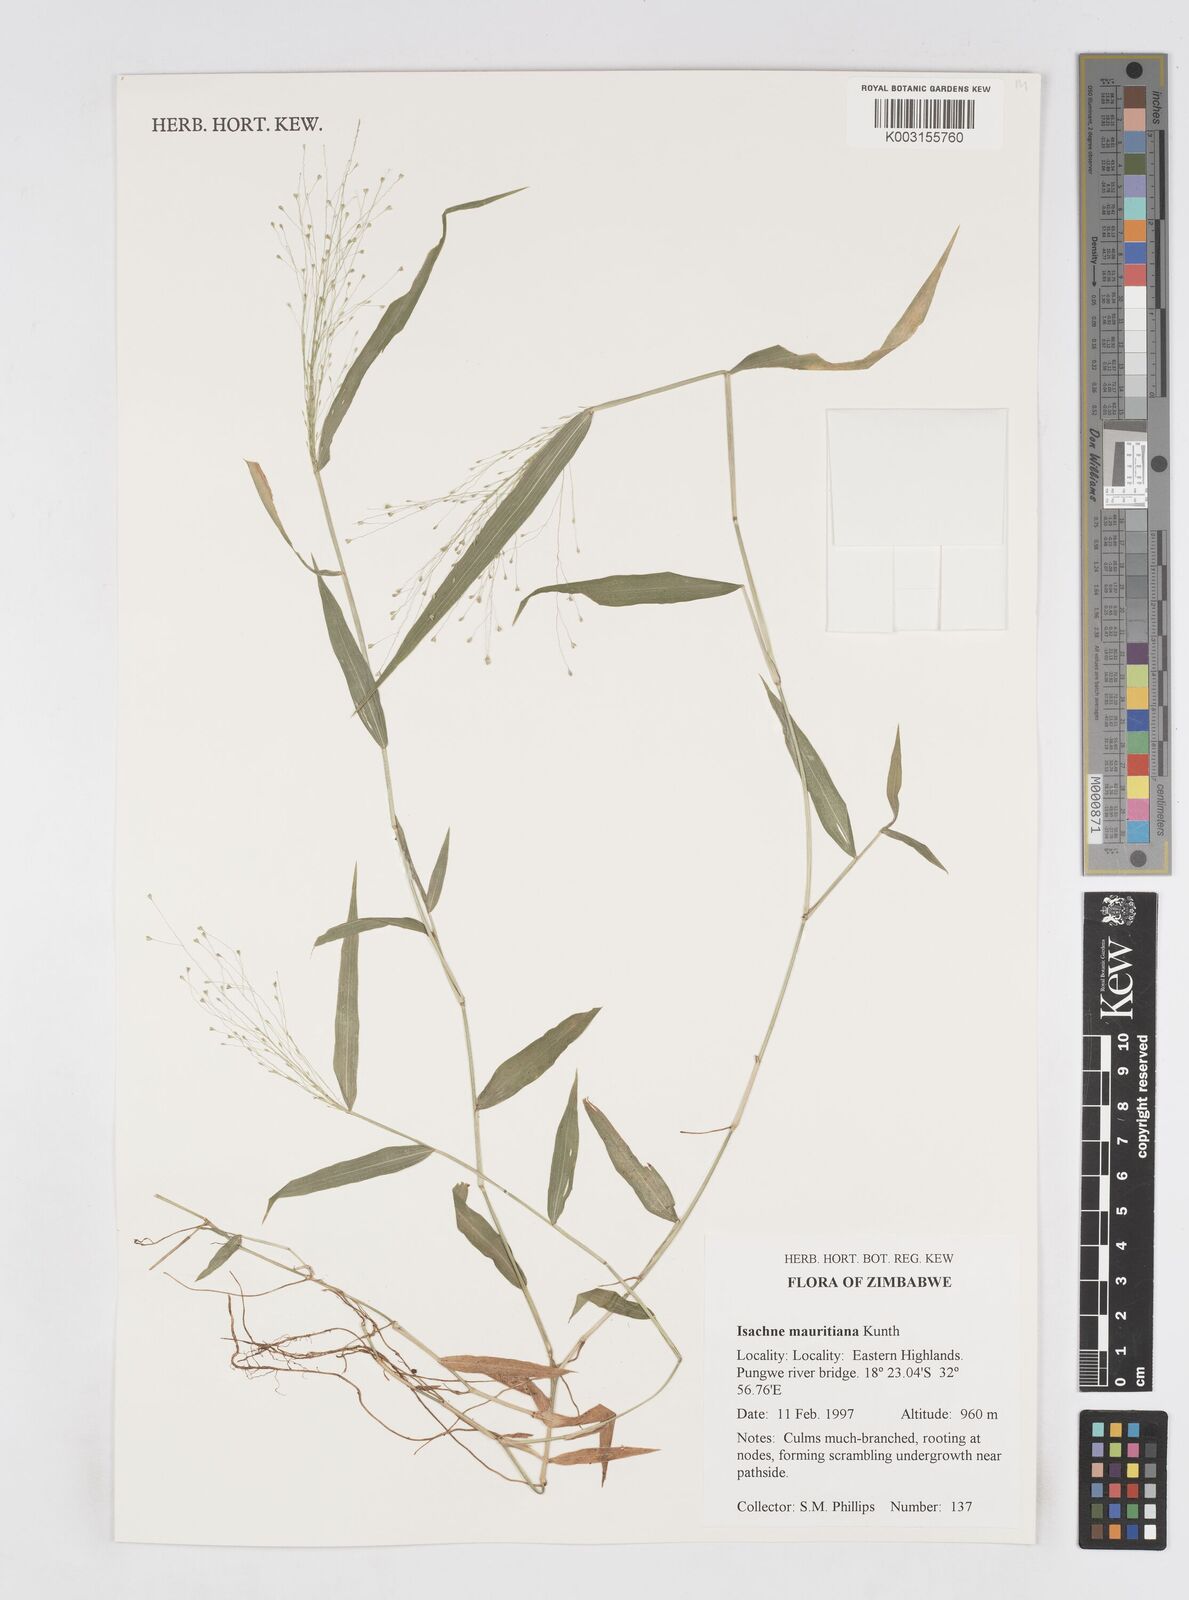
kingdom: Plantae
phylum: Tracheophyta
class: Liliopsida
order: Poales
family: Poaceae
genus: Isachne
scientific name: Isachne mauritiana
